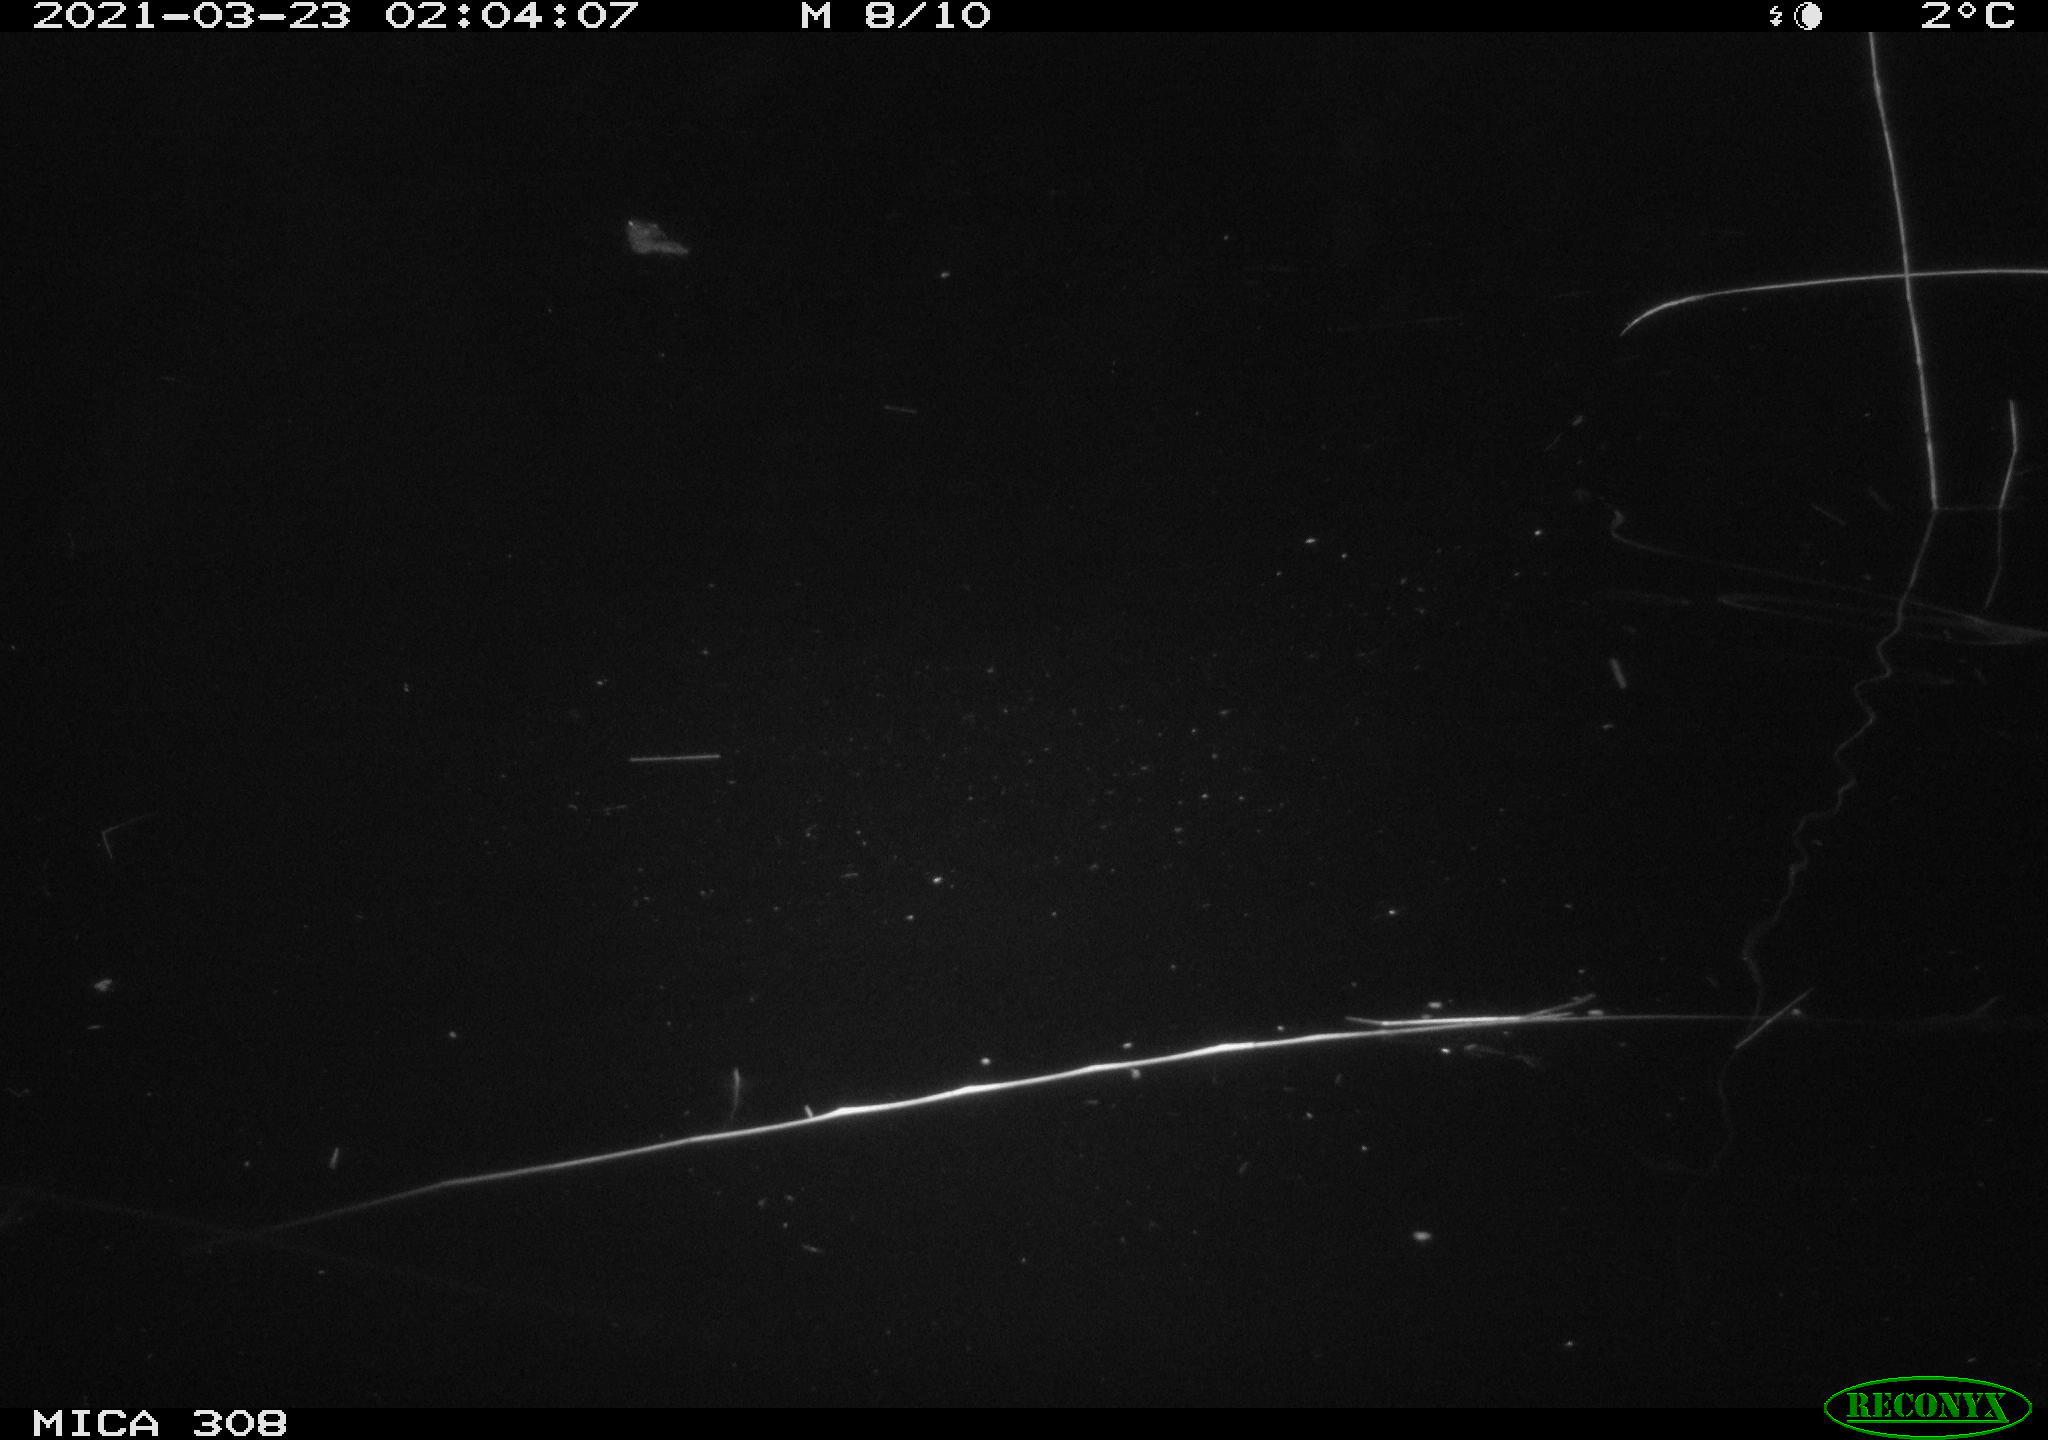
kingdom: Animalia
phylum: Chordata
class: Mammalia
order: Rodentia
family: Cricetidae
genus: Ondatra
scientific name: Ondatra zibethicus
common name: Muskrat
